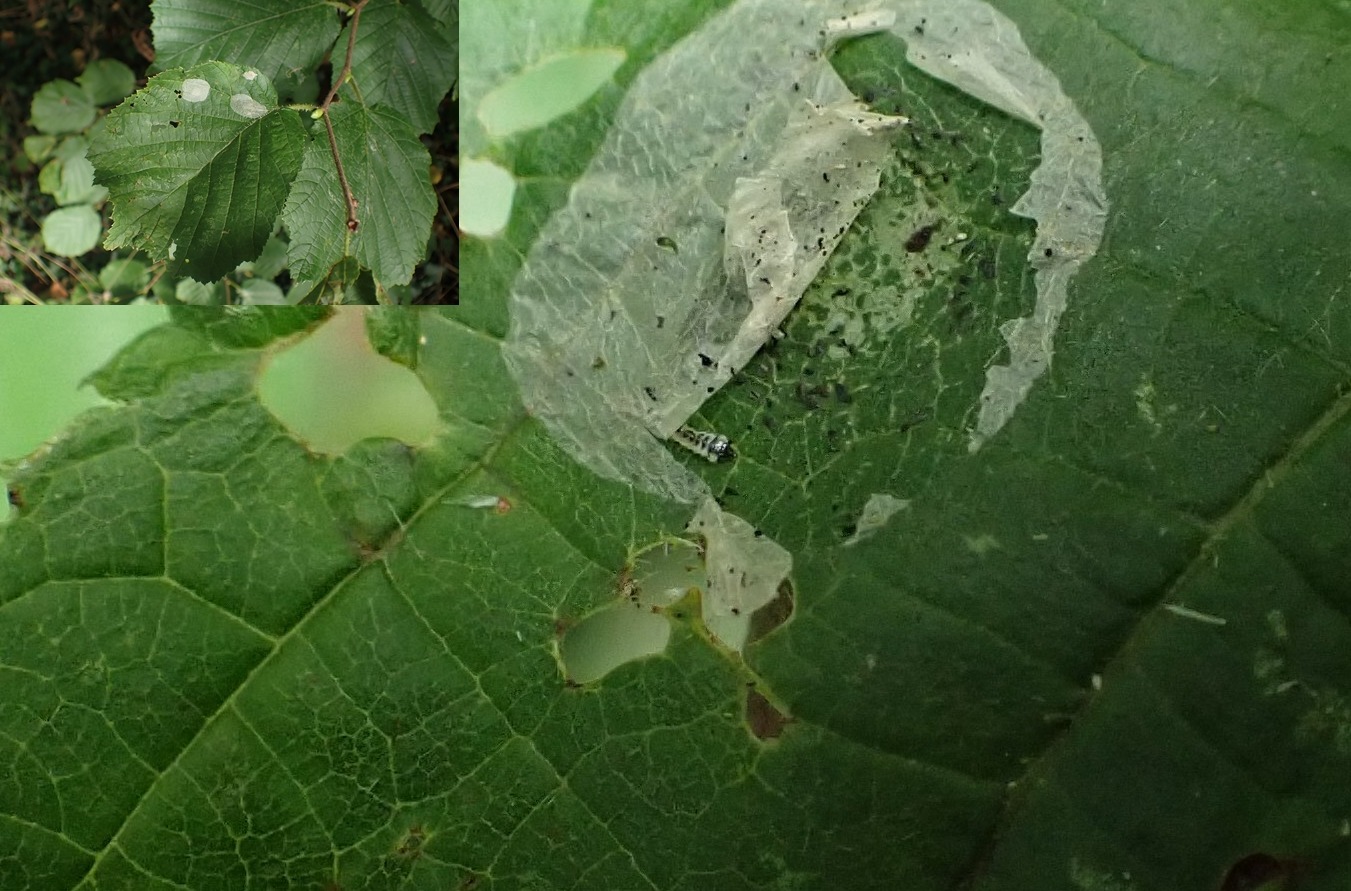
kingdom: Animalia
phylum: Arthropoda
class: Insecta
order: Lepidoptera
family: Gracillariidae
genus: Phyllonorycter
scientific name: Phyllonorycter coryli
